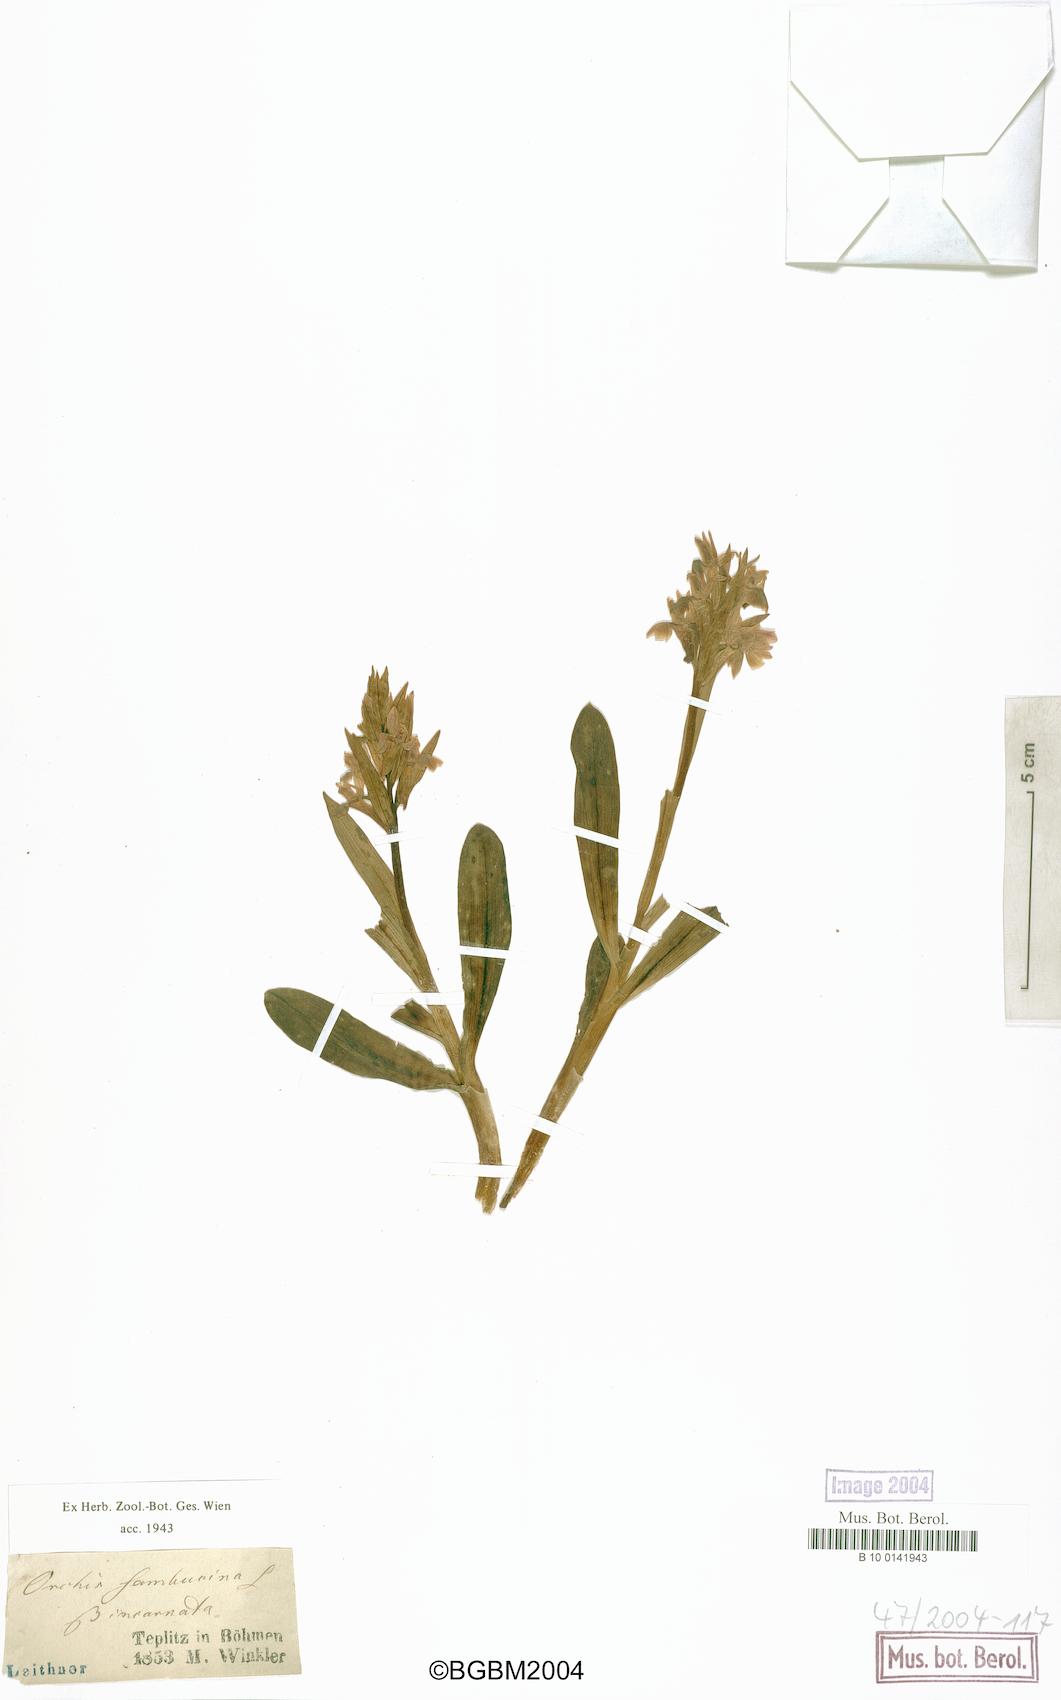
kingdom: Plantae
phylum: Tracheophyta
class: Liliopsida
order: Asparagales
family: Orchidaceae
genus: Dactylorhiza
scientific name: Dactylorhiza sambucina
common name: Elder-flowered orchid
